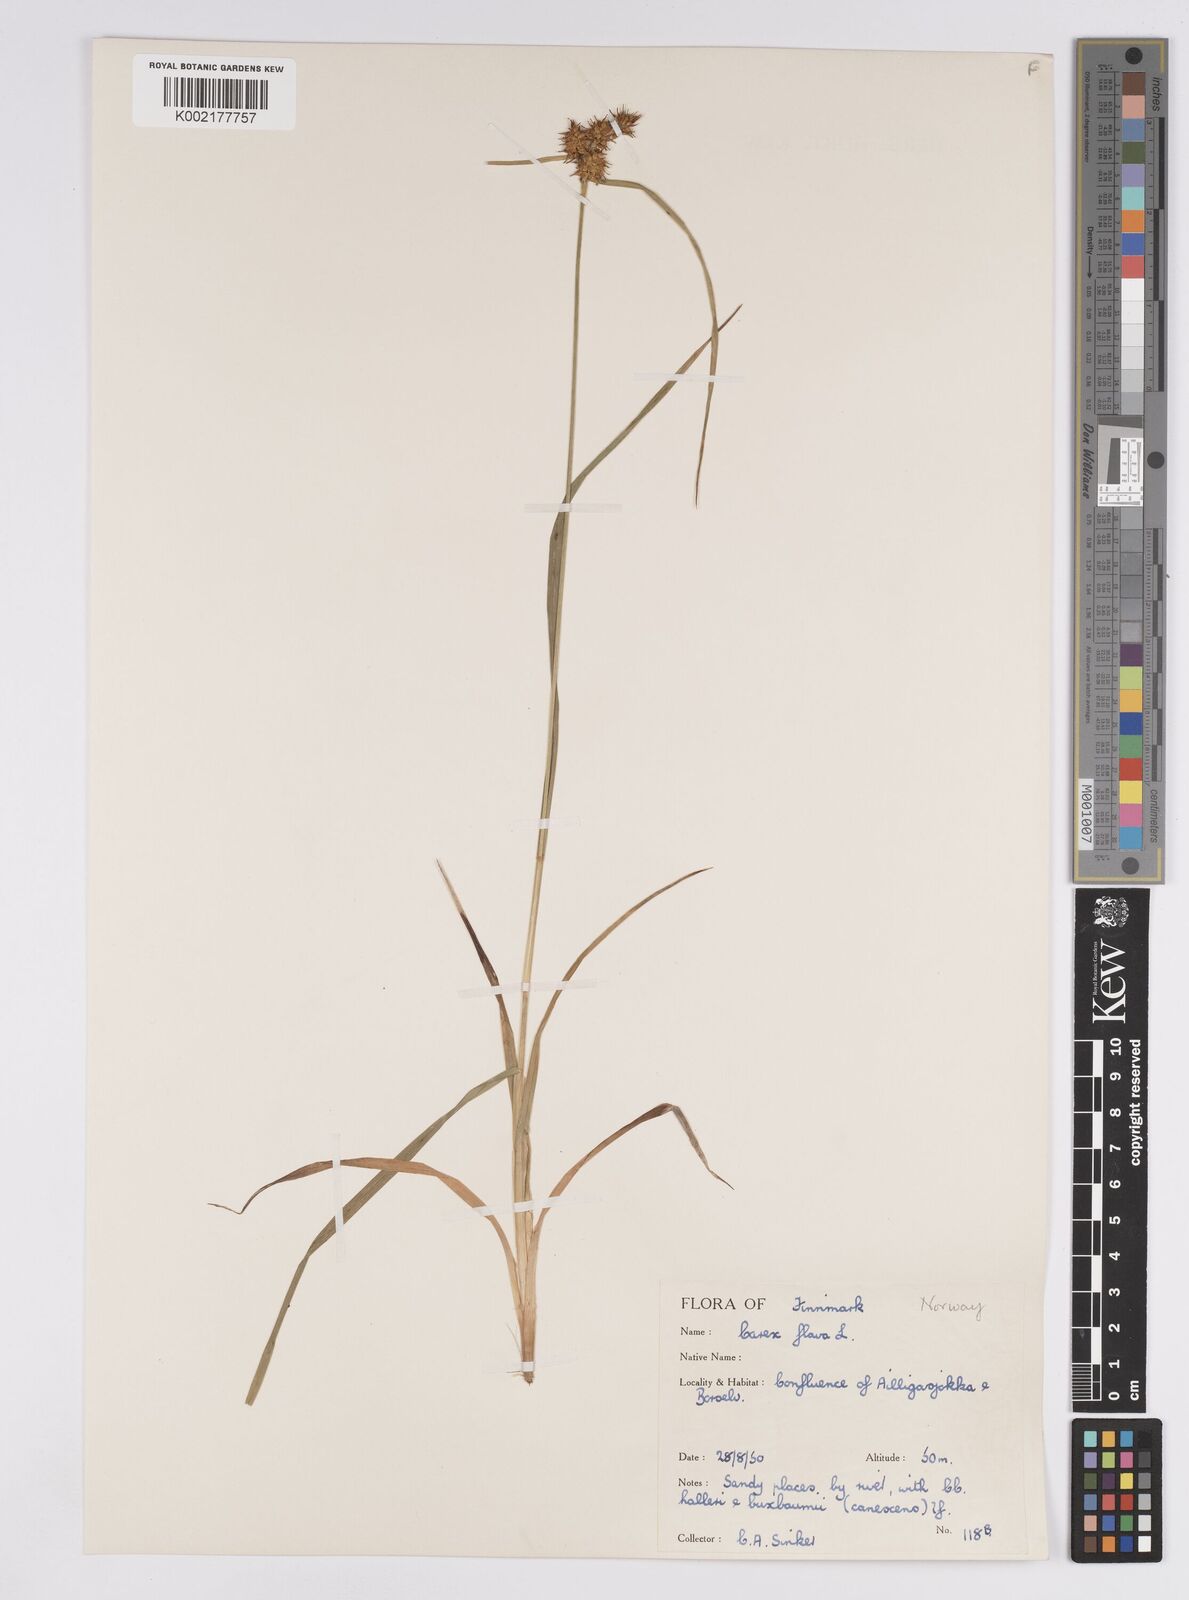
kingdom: Plantae
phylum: Tracheophyta
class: Liliopsida
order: Poales
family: Cyperaceae
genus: Carex
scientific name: Carex flava
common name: Large yellow-sedge
